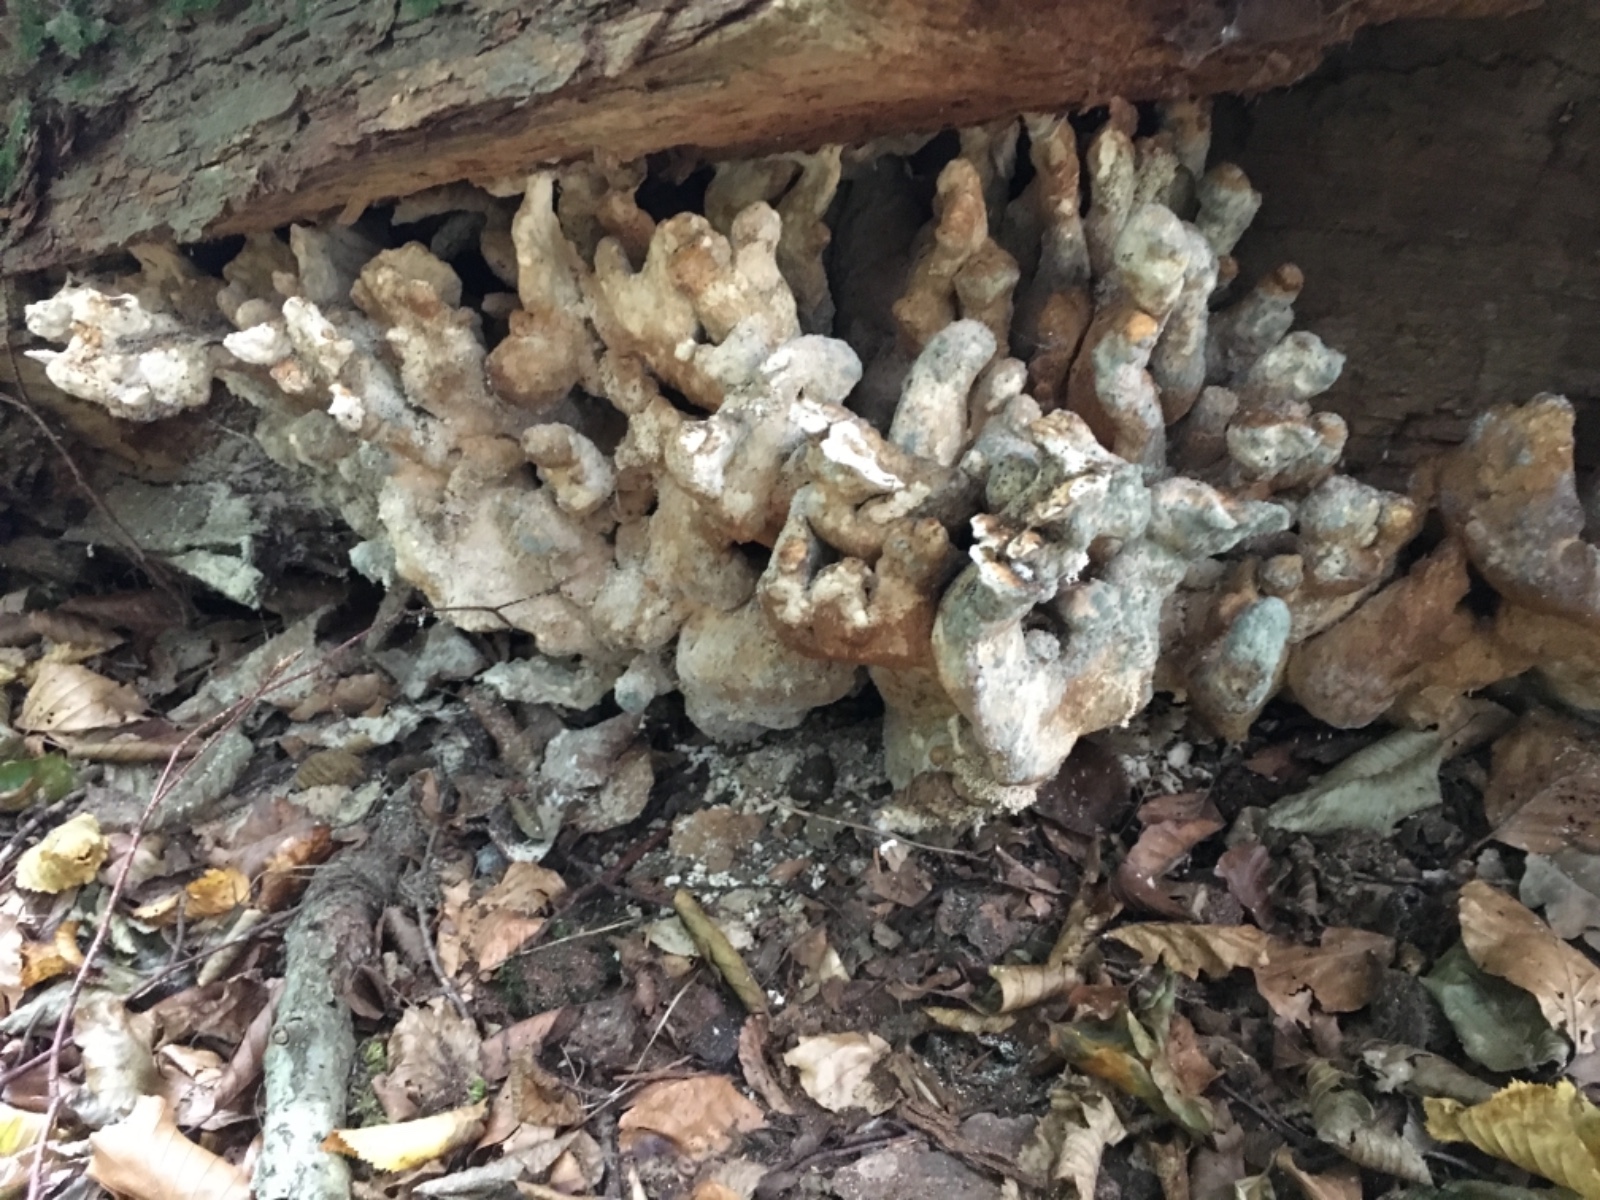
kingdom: Fungi
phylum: Basidiomycota
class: Agaricomycetes
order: Polyporales
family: Laetiporaceae
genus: Laetiporus
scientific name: Laetiporus sulphureus
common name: svovlporesvamp
